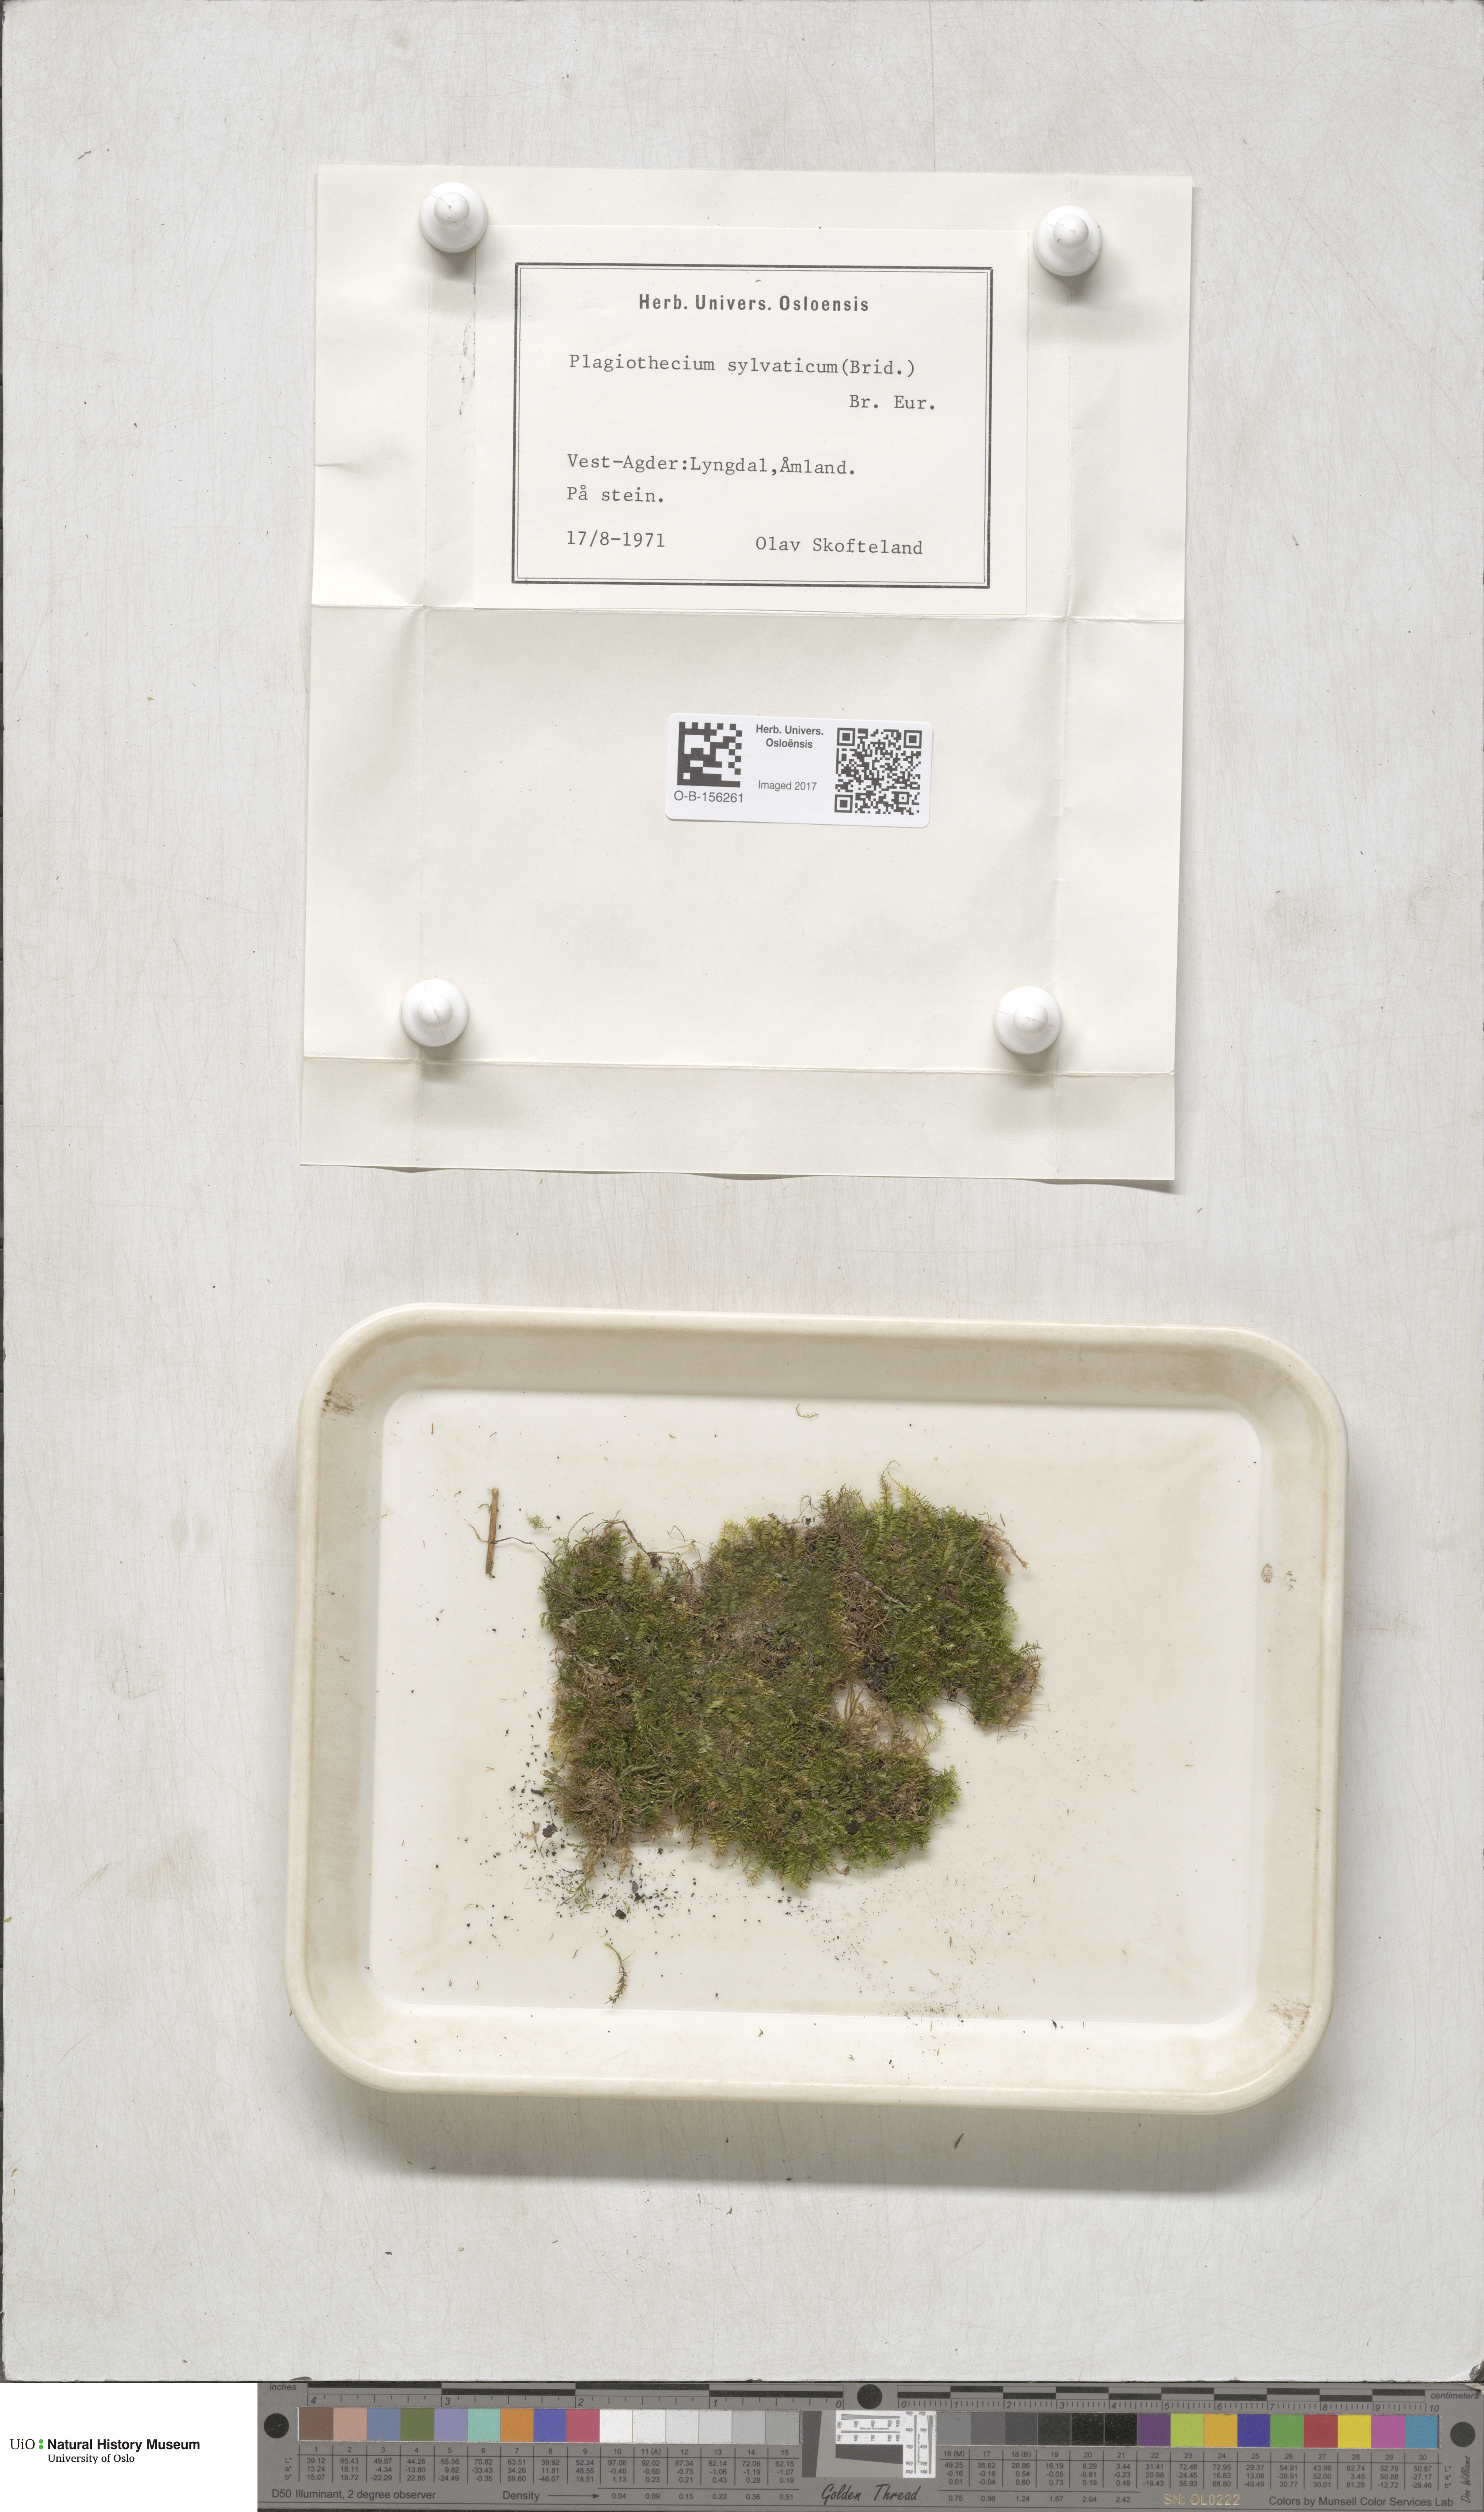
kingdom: Plantae
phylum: Bryophyta
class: Bryopsida
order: Hypnales
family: Plagiotheciaceae
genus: Plagiothecium
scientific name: Plagiothecium nemorale
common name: Woodsy silk-moss
